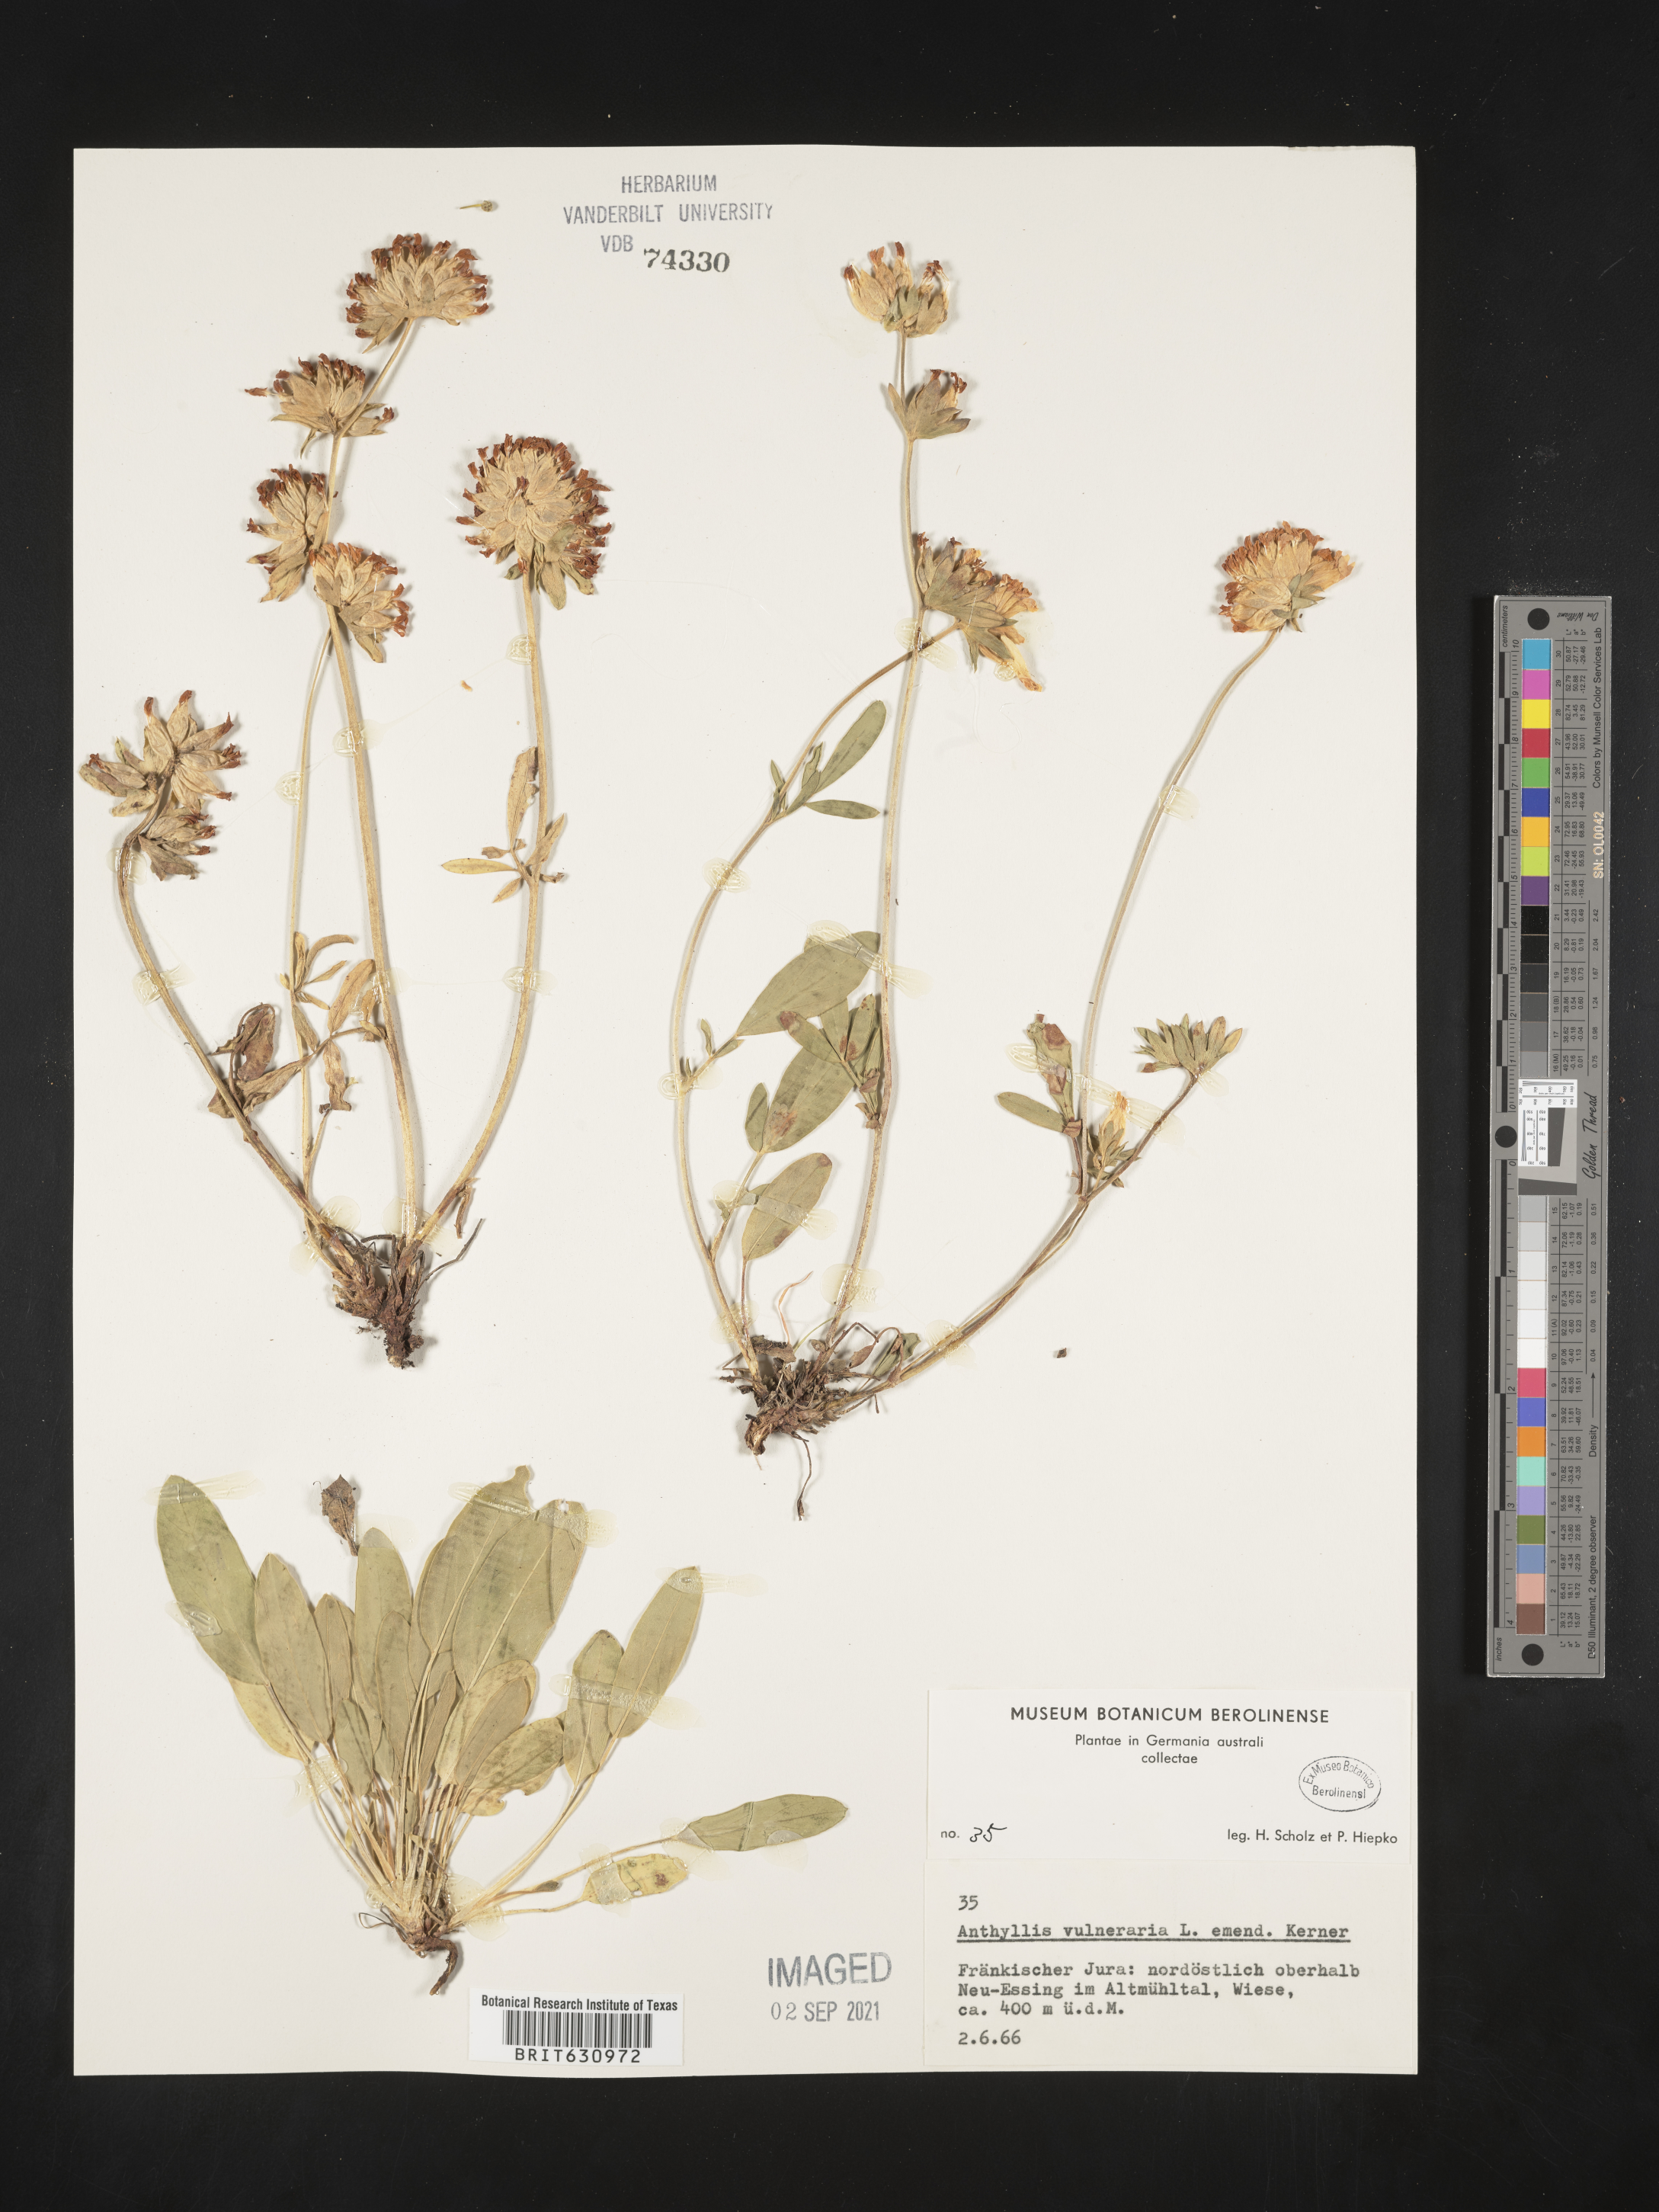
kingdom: Plantae
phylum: Tracheophyta
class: Magnoliopsida
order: Fabales
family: Fabaceae
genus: Anthyllis
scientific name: Anthyllis
